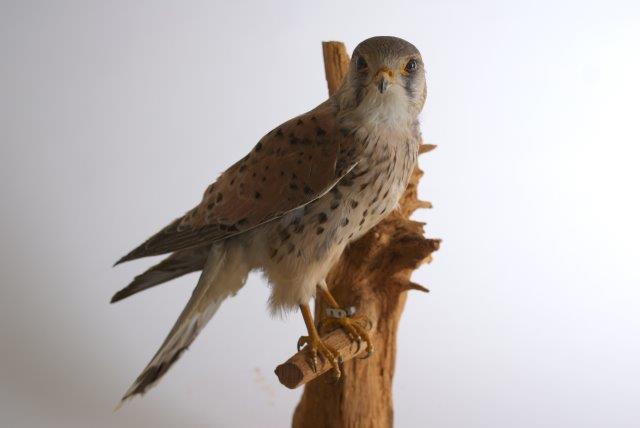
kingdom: Animalia
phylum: Chordata
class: Aves
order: Falconiformes
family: Falconidae
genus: Falco
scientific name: Falco tinnunculus
